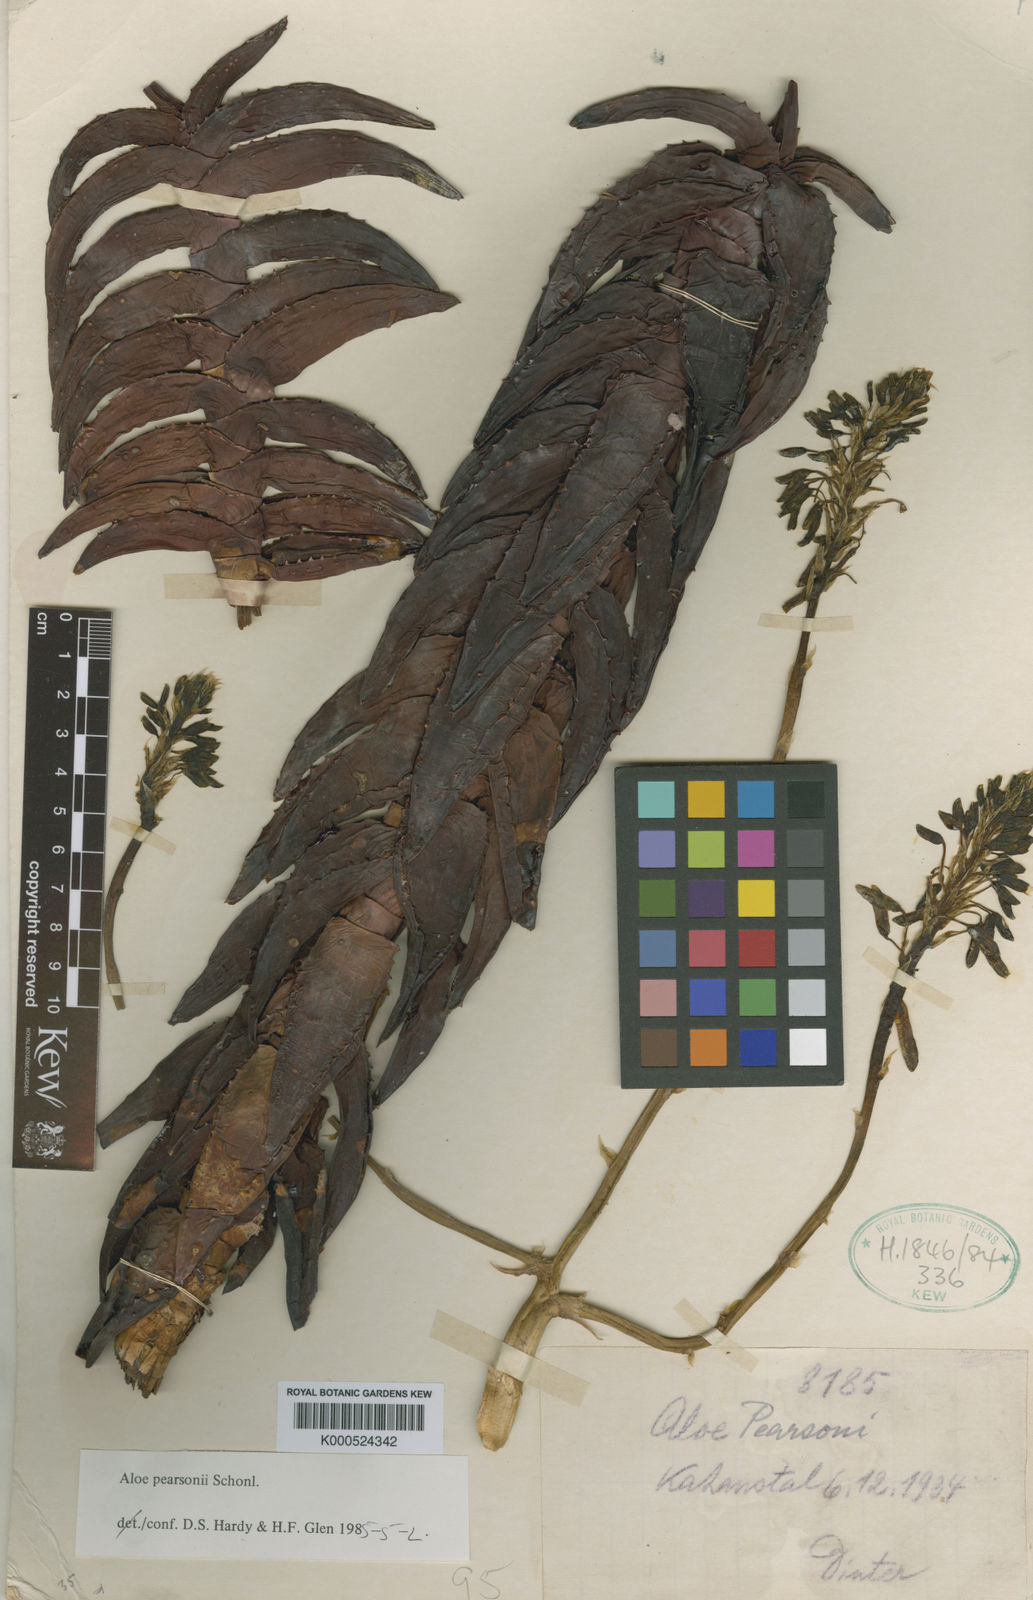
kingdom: Plantae
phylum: Tracheophyta
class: Liliopsida
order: Asparagales
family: Asphodelaceae
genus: Aloe
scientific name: Aloe
